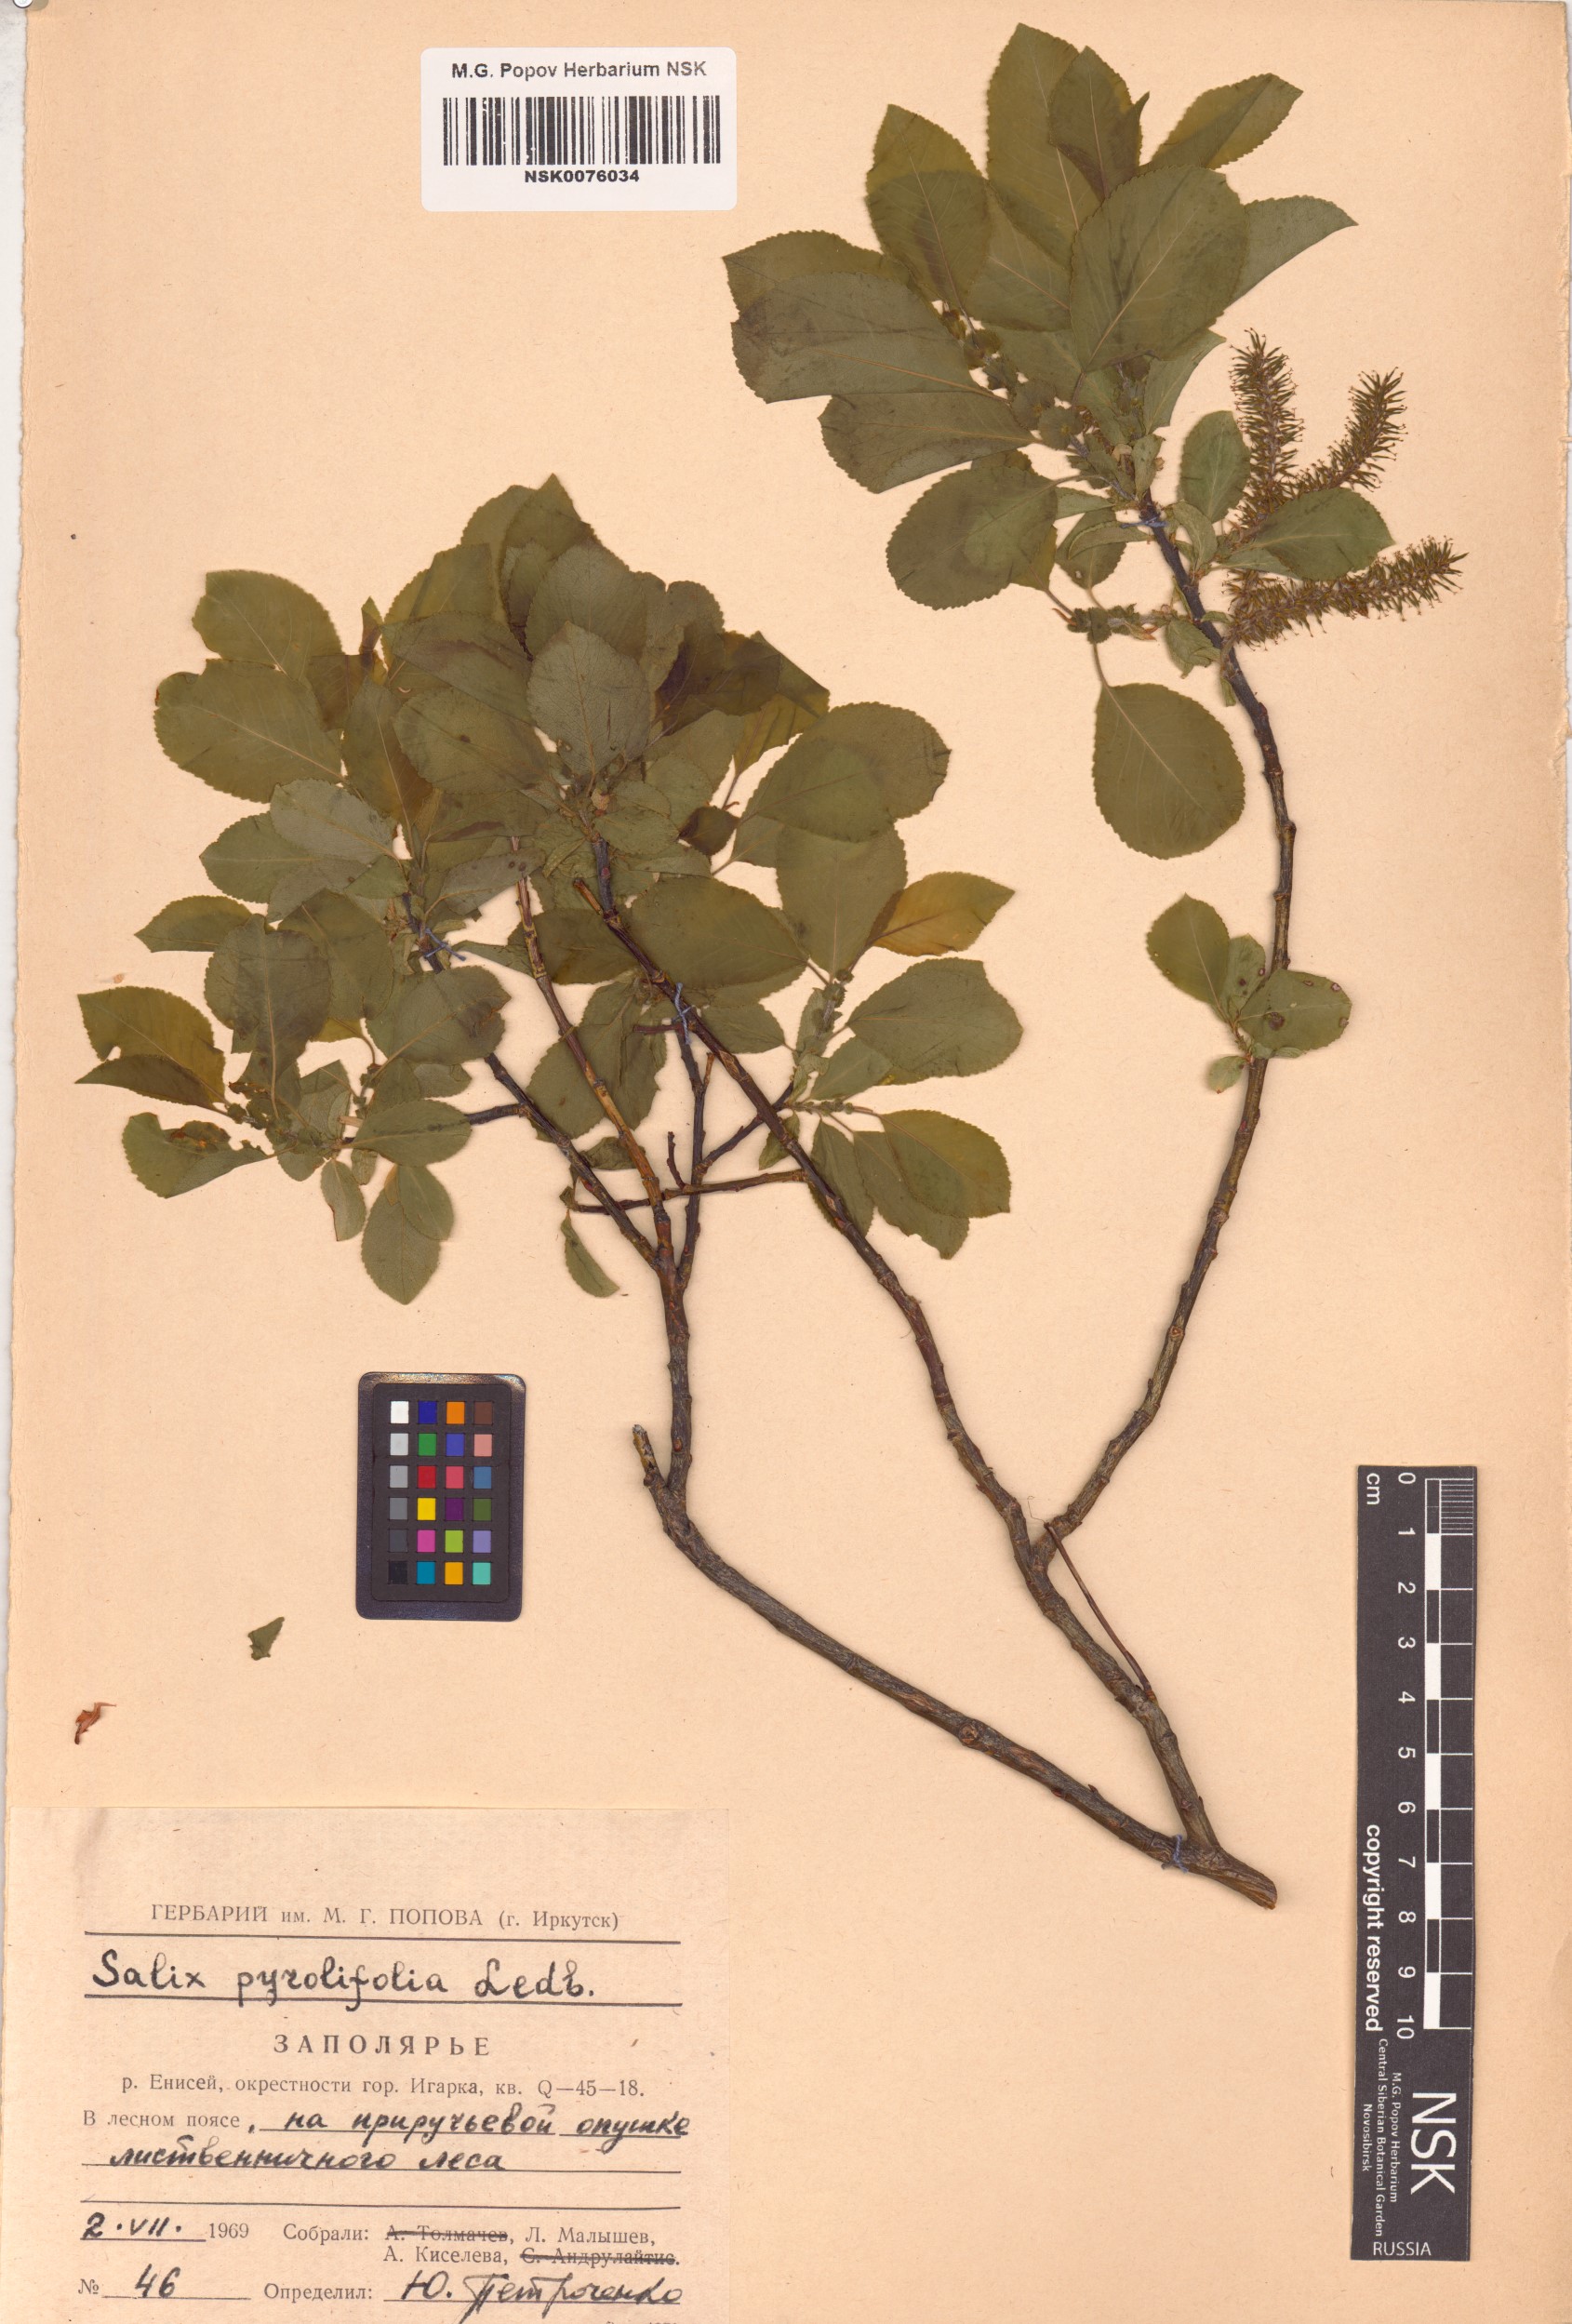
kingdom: Plantae
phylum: Tracheophyta
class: Magnoliopsida
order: Malpighiales
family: Salicaceae
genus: Salix
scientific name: Salix pyrolifolia
